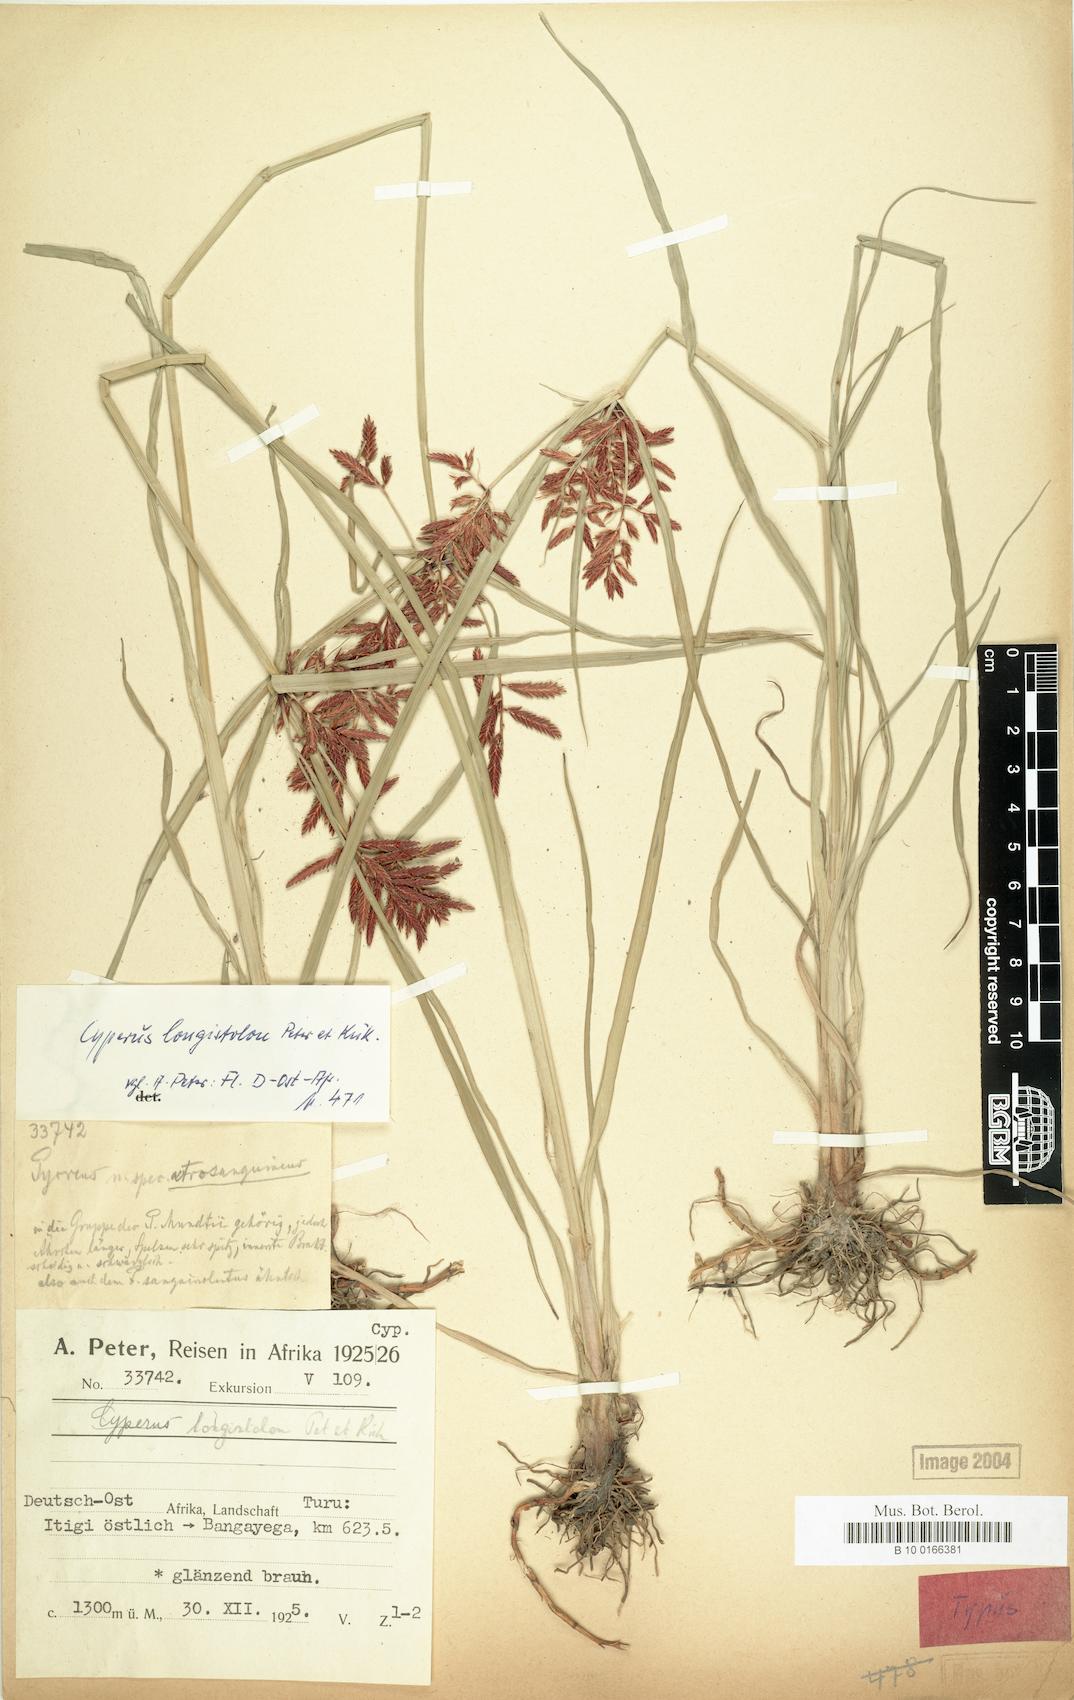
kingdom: Plantae
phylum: Tracheophyta
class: Liliopsida
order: Poales
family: Cyperaceae
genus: Cyperus
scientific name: Cyperus chrysanthus
